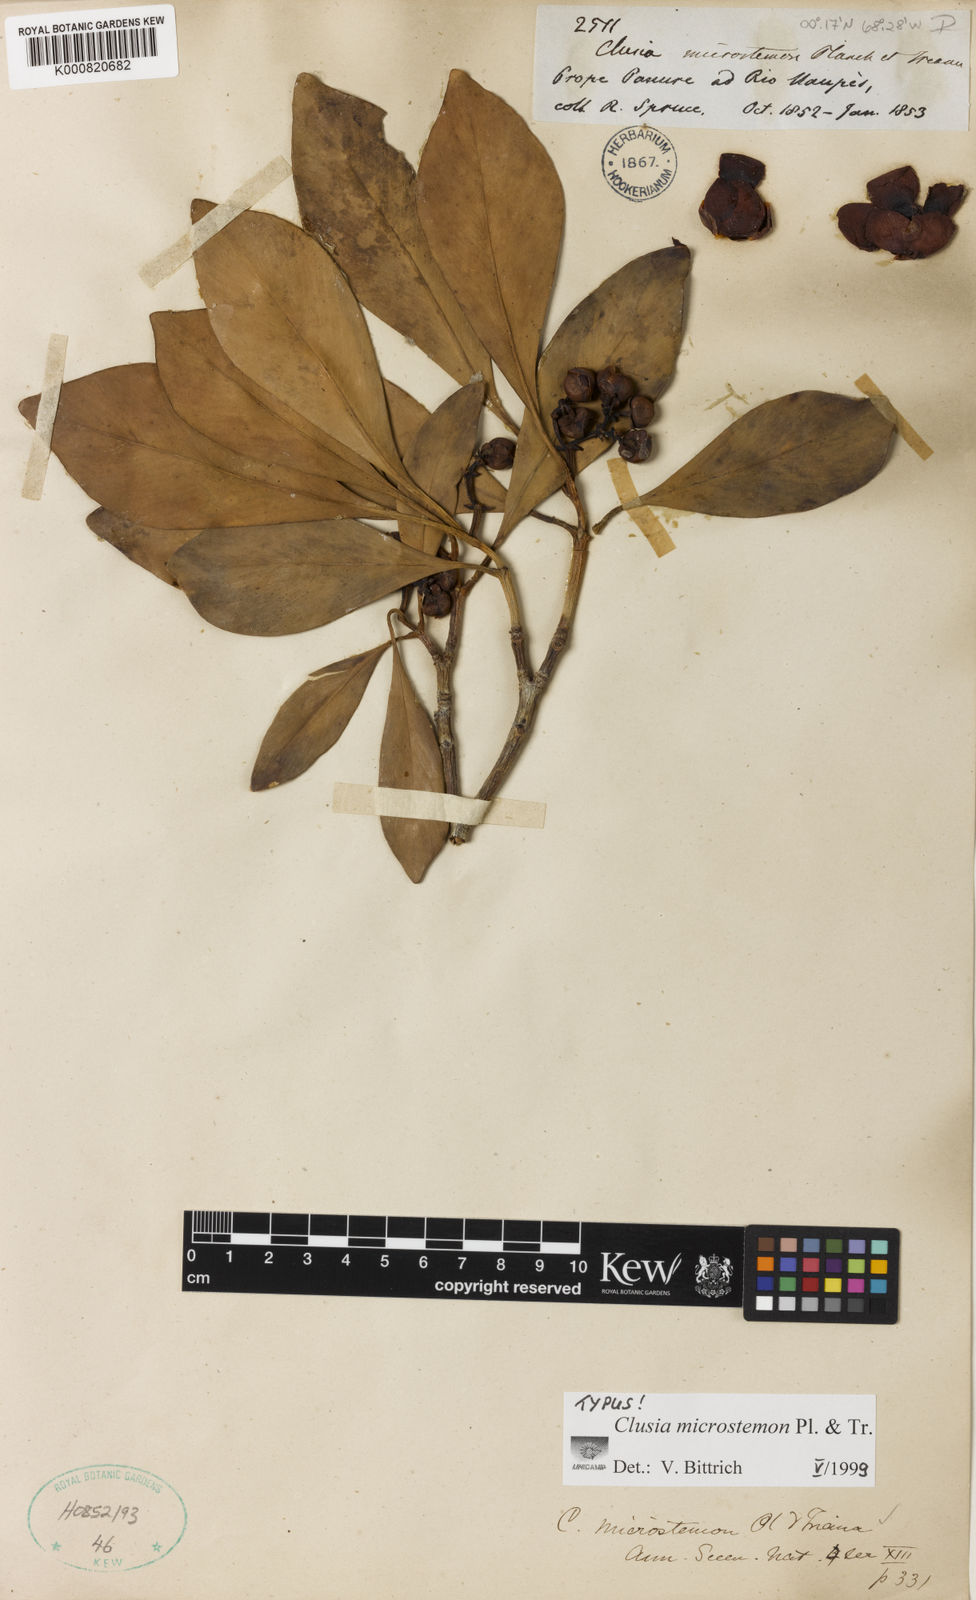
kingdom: Plantae
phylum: Tracheophyta
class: Magnoliopsida
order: Malpighiales
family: Clusiaceae
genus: Clusia
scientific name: Clusia microstemon
